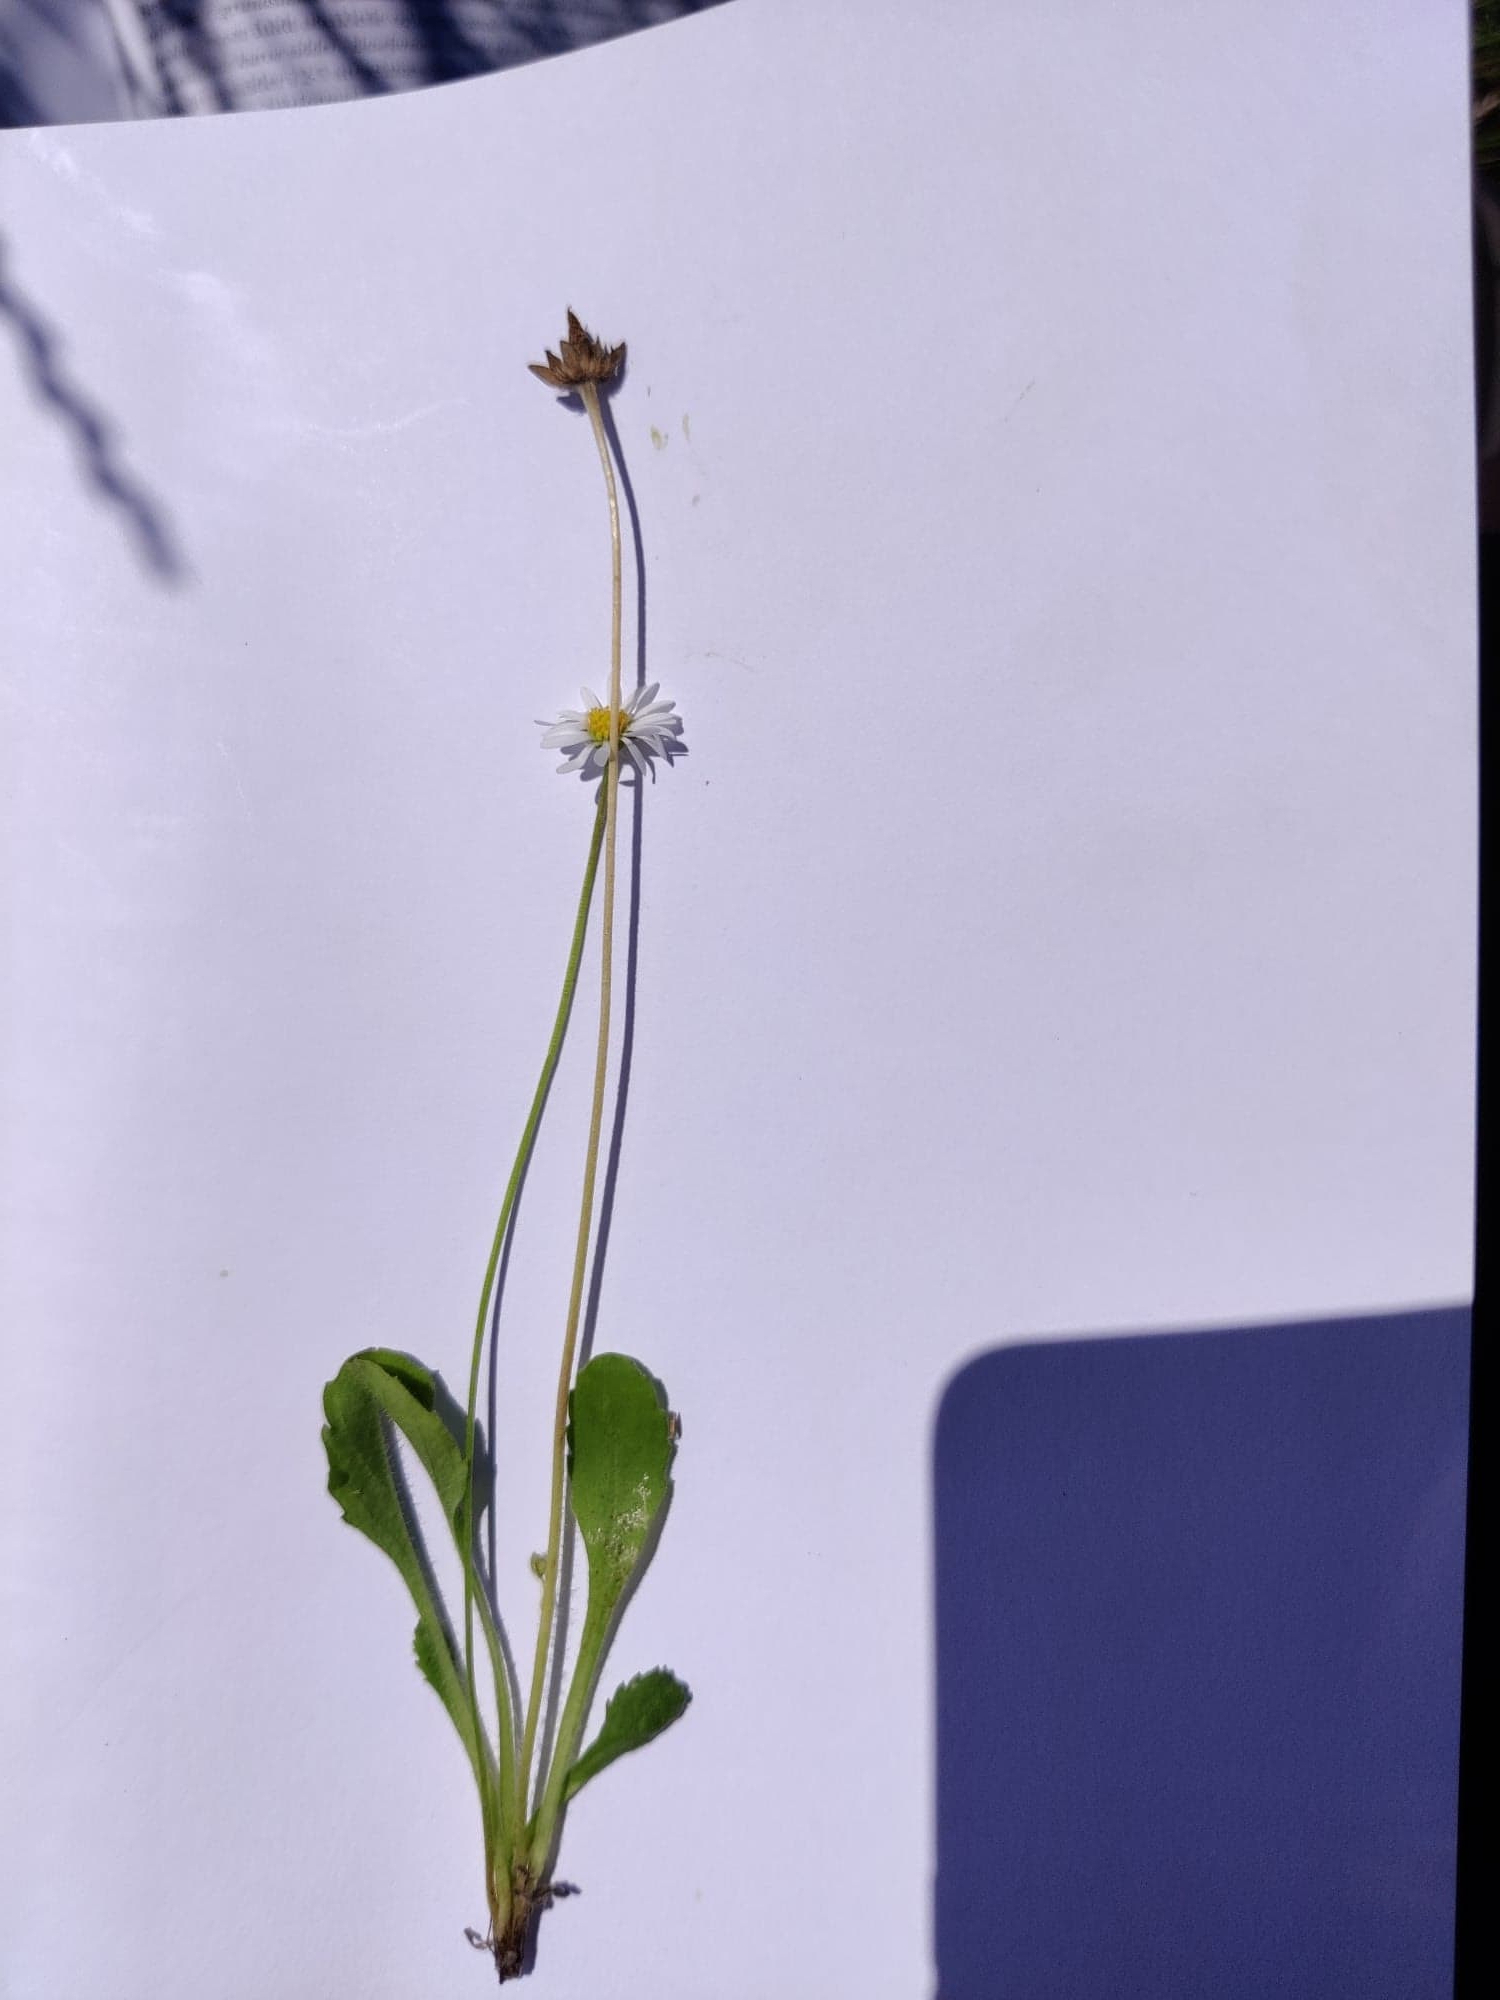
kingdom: Plantae
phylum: Tracheophyta
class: Magnoliopsida
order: Asterales
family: Asteraceae
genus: Bellis
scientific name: Bellis perennis
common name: Tusindfryd
